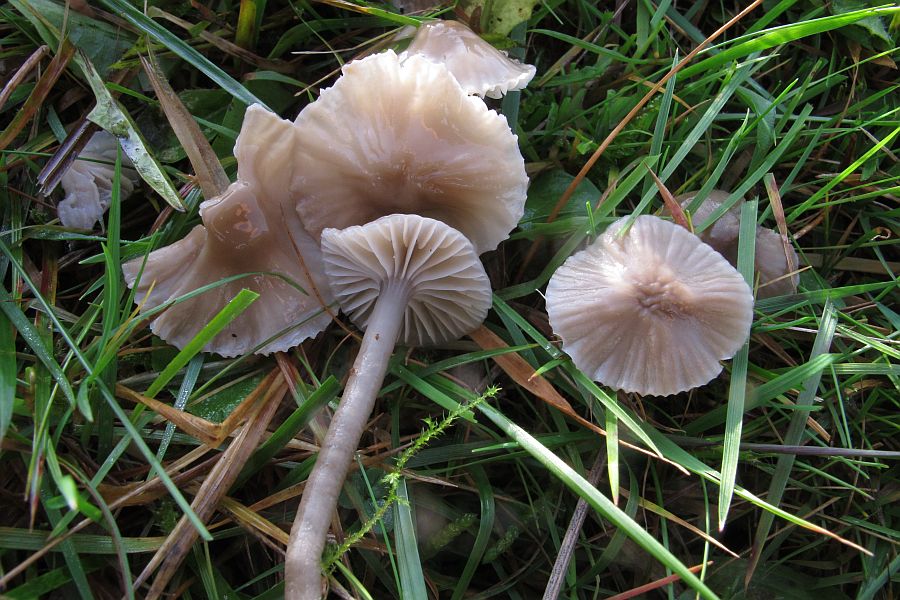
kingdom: Fungi
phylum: Basidiomycota
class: Agaricomycetes
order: Agaricales
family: Hygrophoraceae
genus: Gliophorus
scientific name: Gliophorus irrigatus
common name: slimet vokshat
